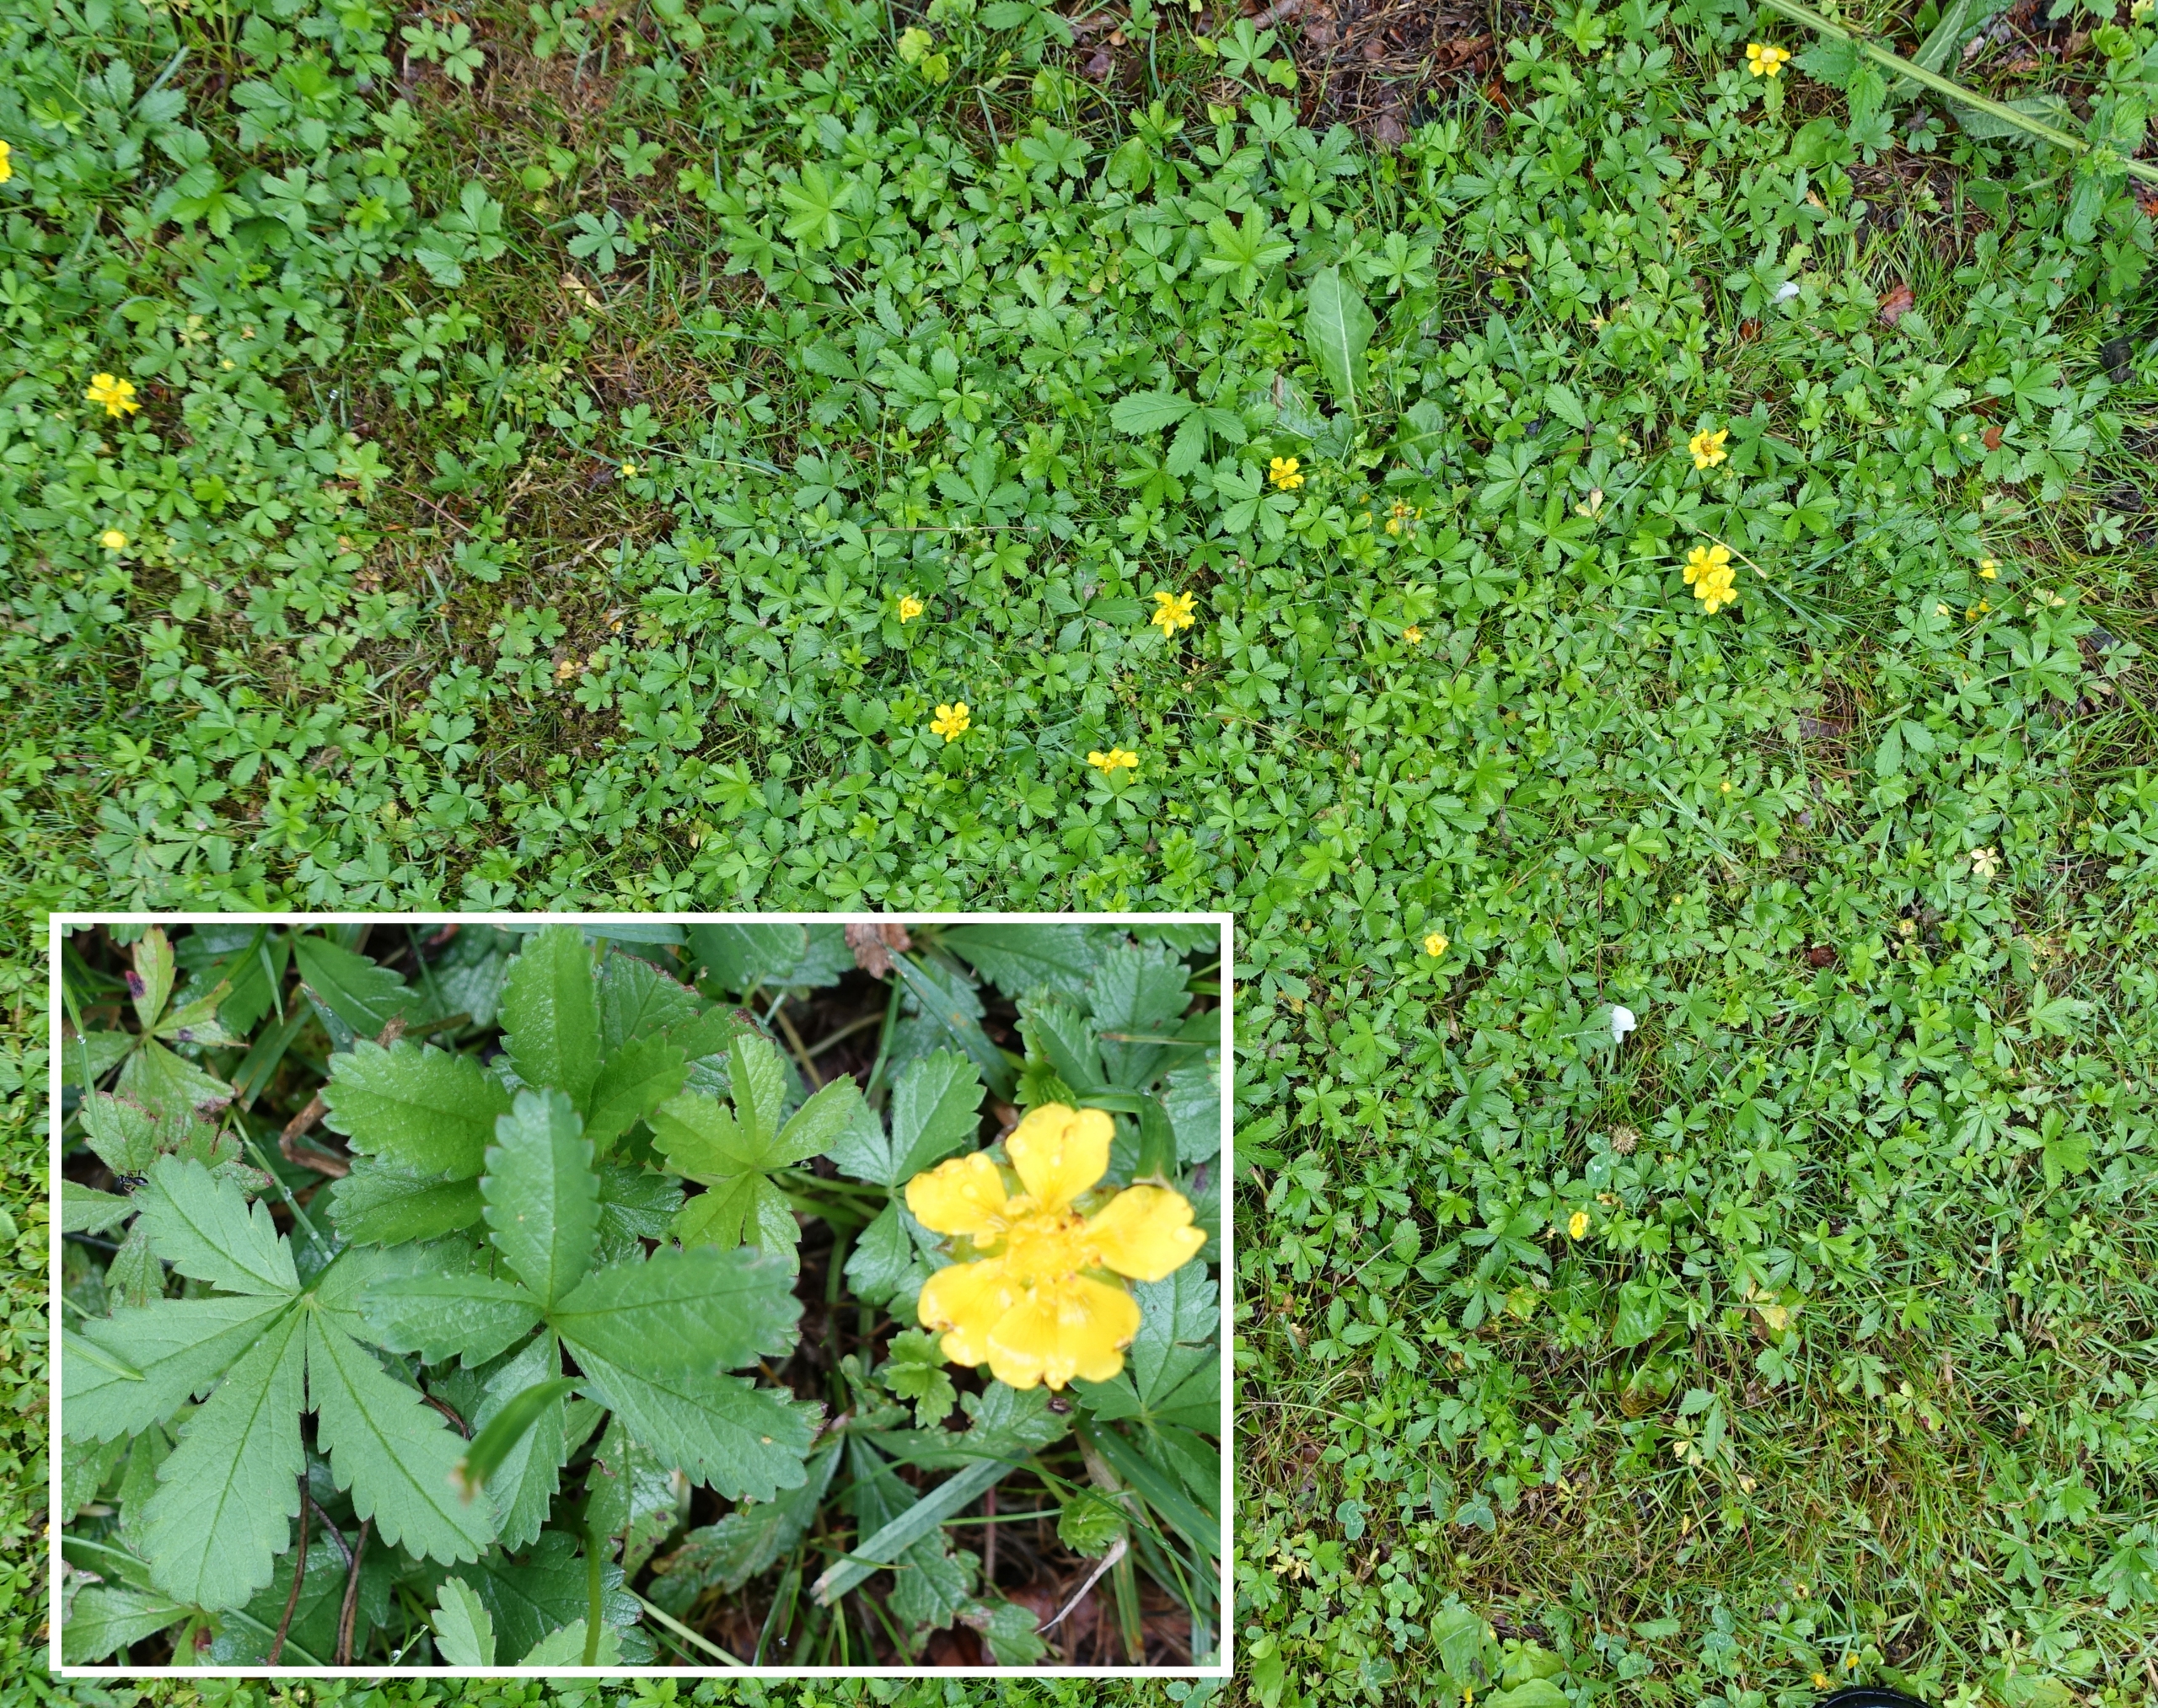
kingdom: Plantae
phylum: Tracheophyta
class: Magnoliopsida
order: Rosales
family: Rosaceae
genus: Potentilla
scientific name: Potentilla reptans
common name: Krybende potentil
